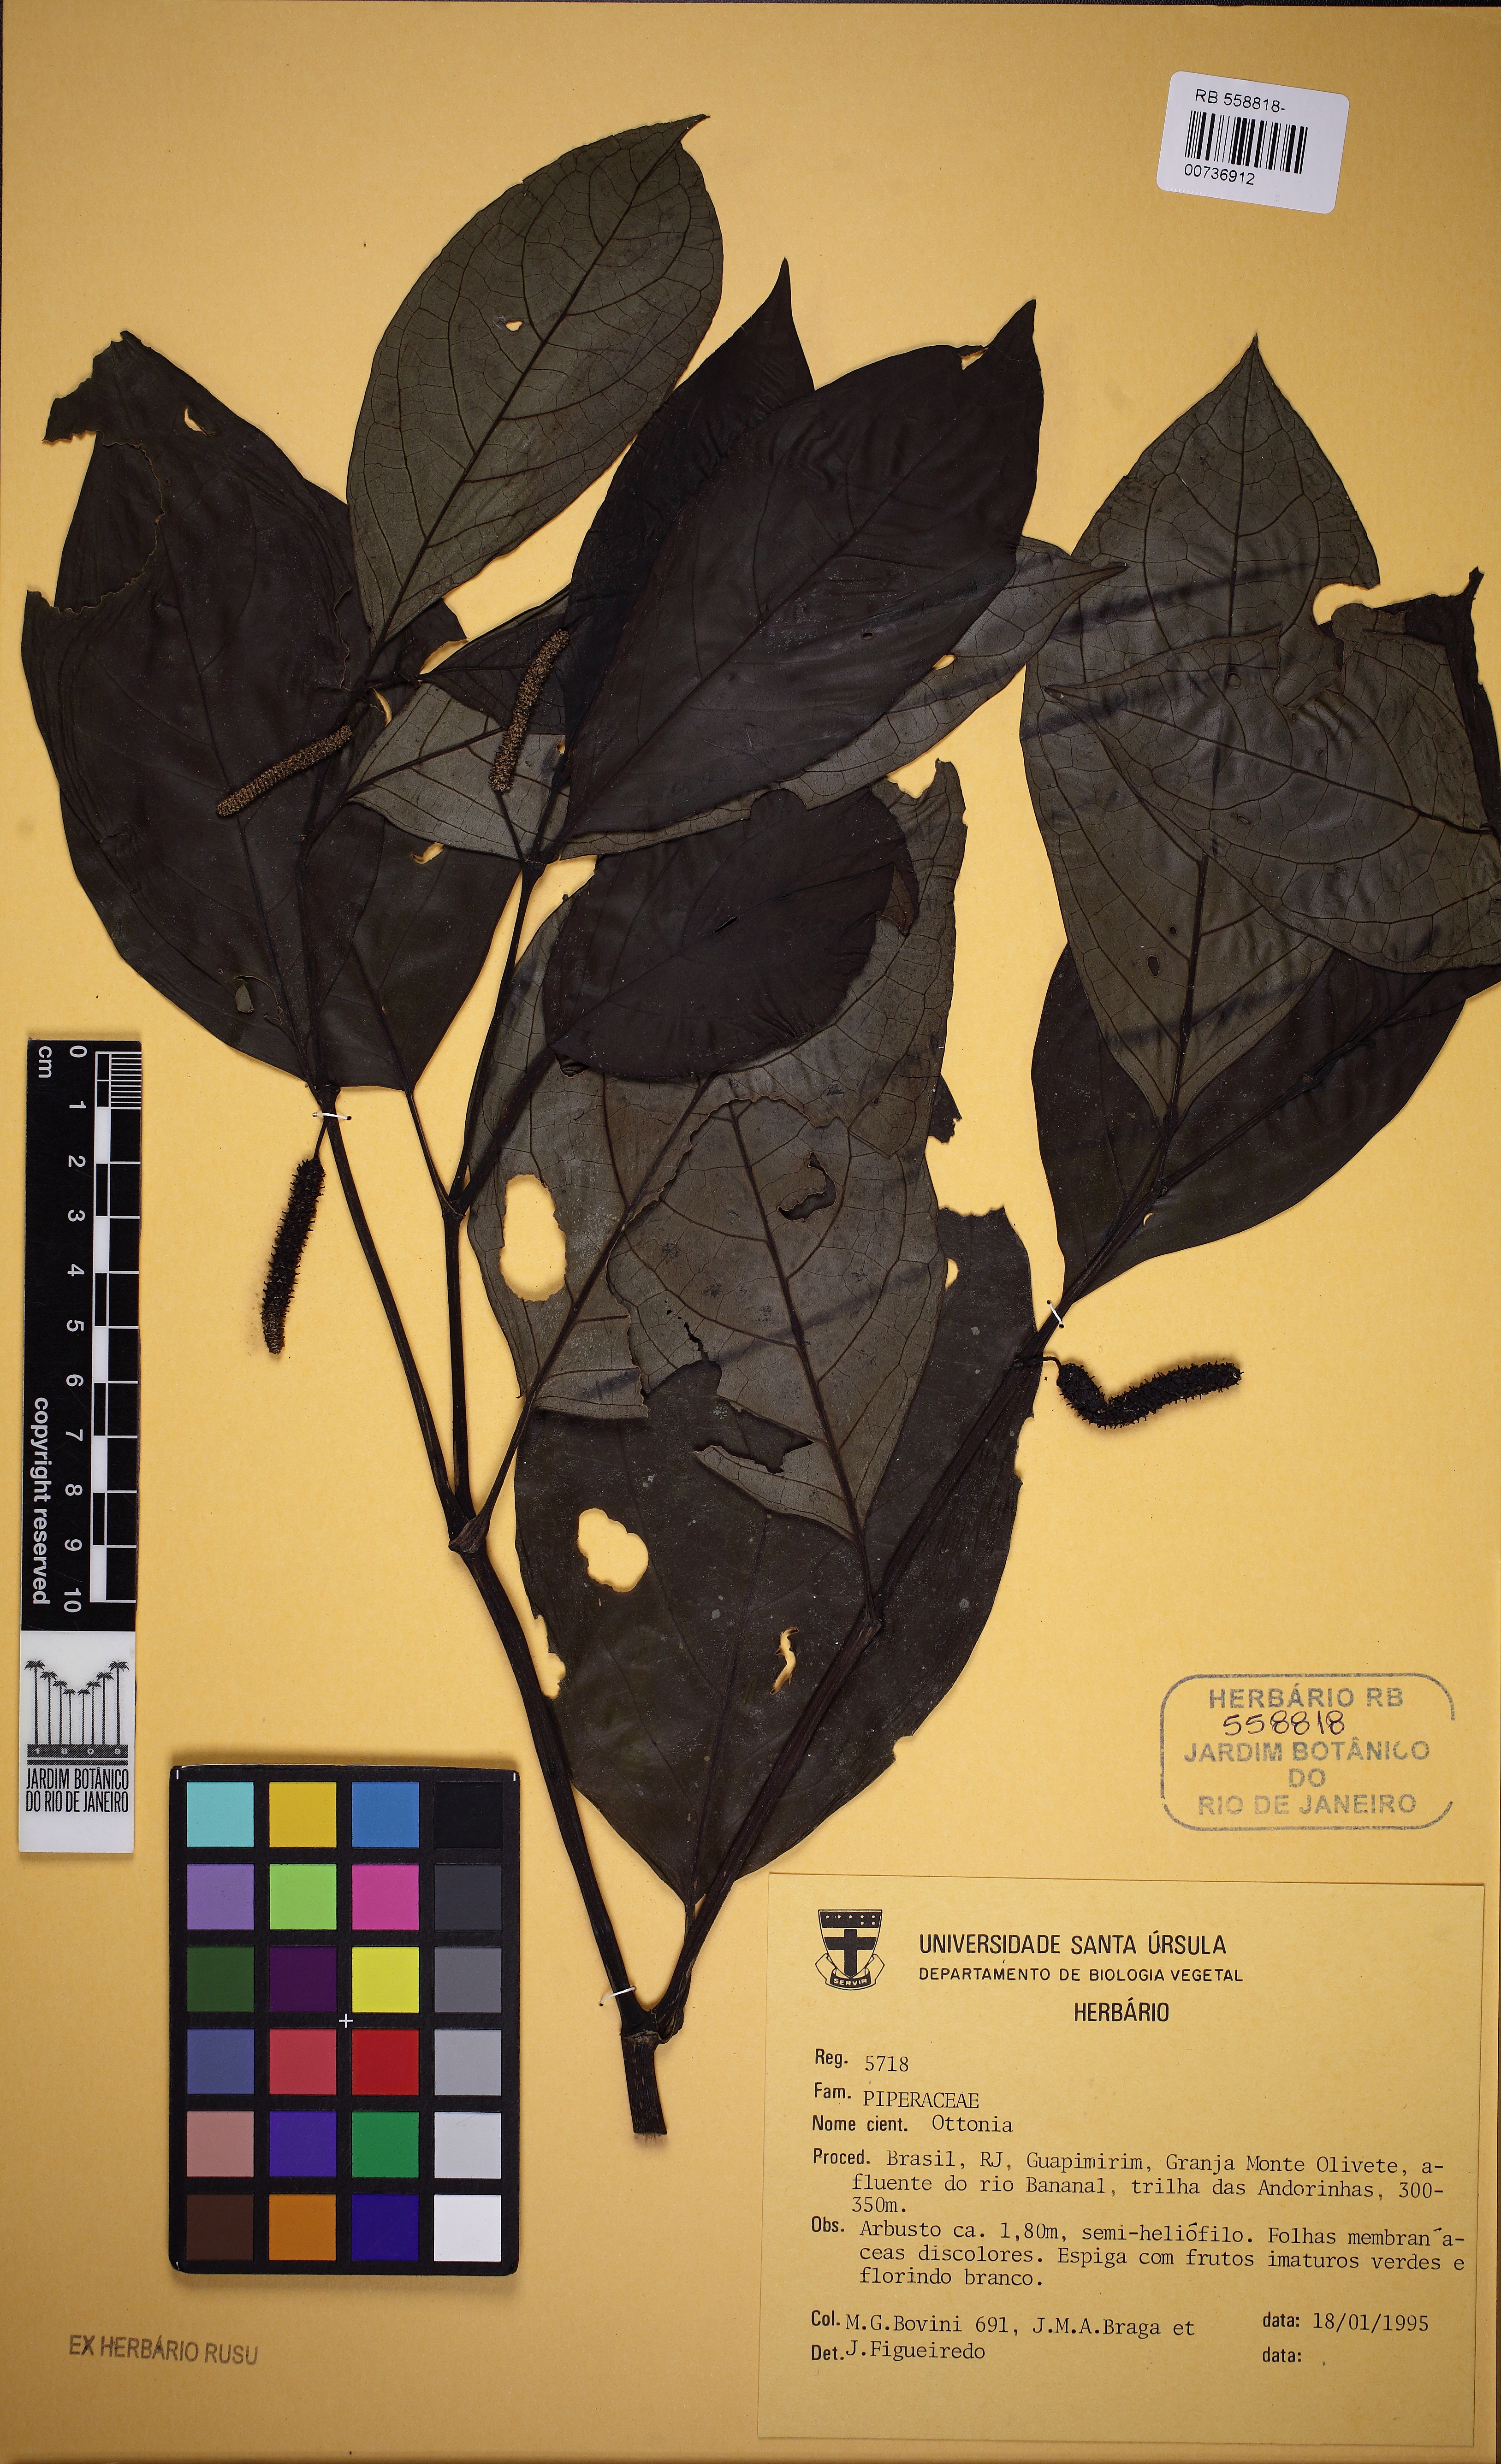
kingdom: Plantae
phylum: Tracheophyta
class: Magnoliopsida
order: Piperales
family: Piperaceae
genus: Piper
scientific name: Piper caldense
